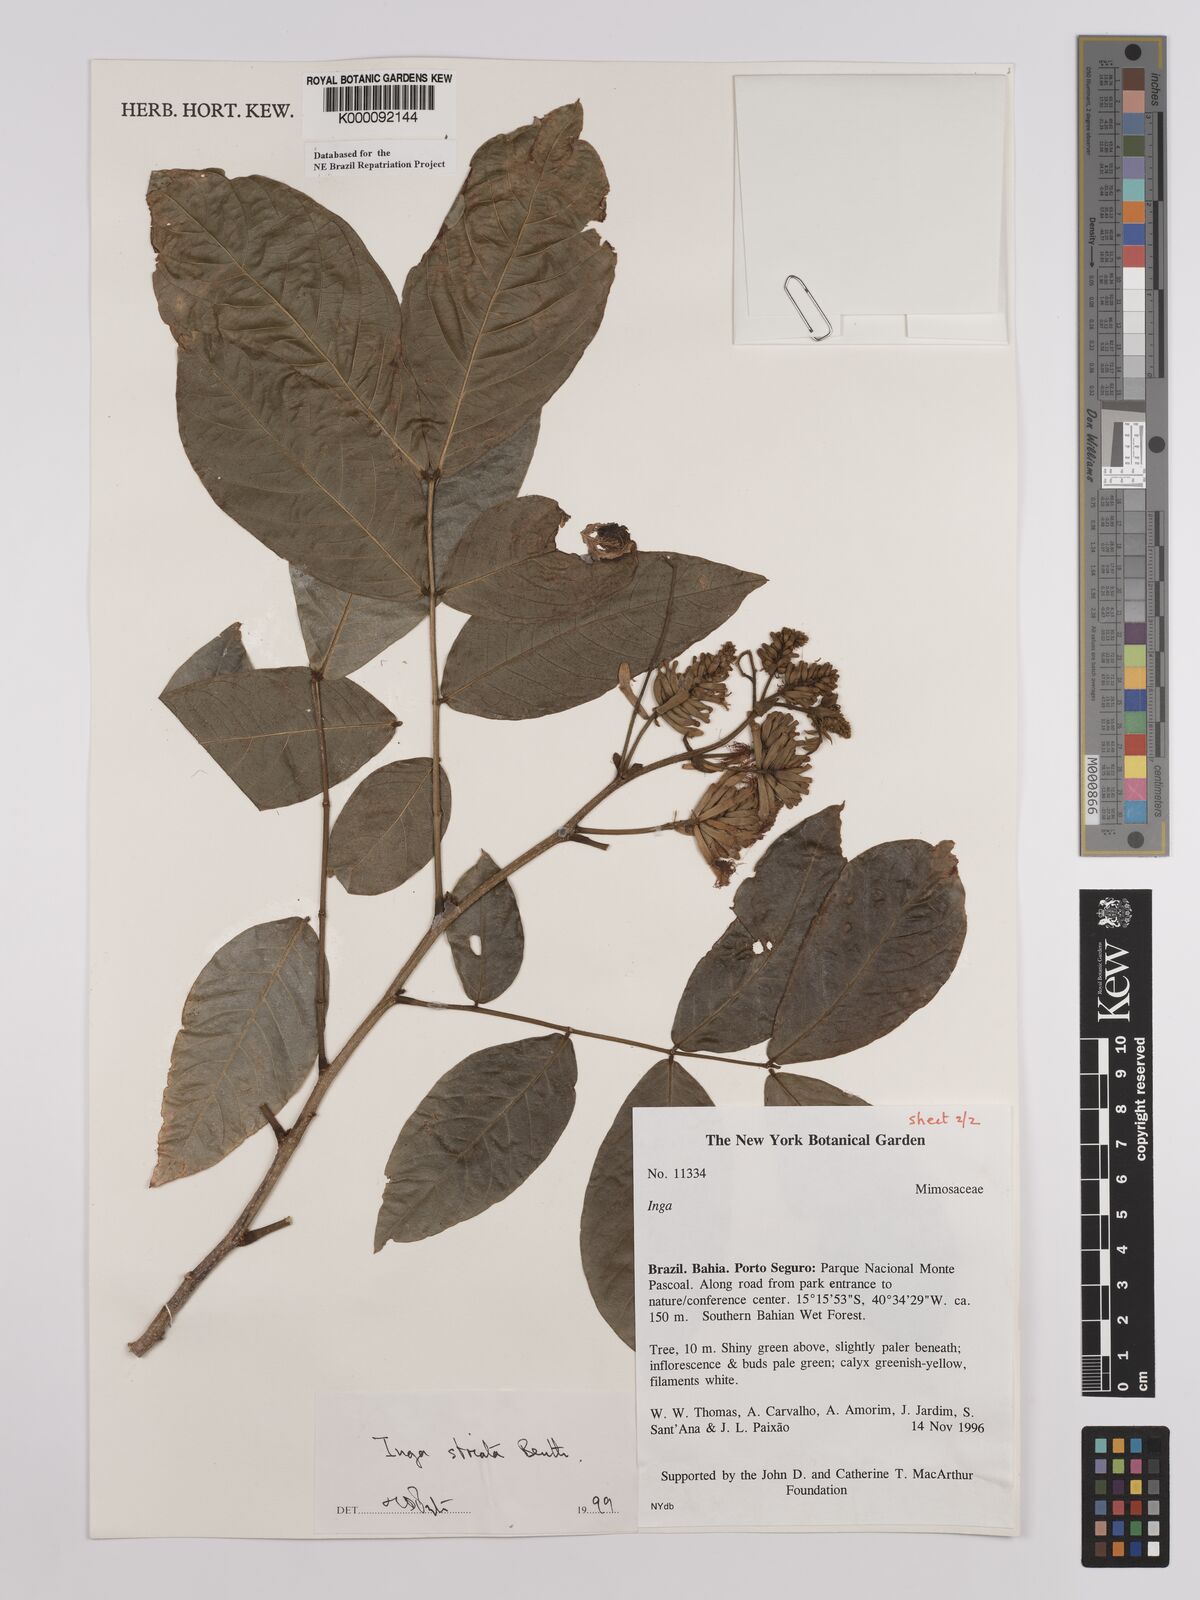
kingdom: Plantae
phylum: Tracheophyta
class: Magnoliopsida
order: Fabales
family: Fabaceae
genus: Inga
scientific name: Inga striata
